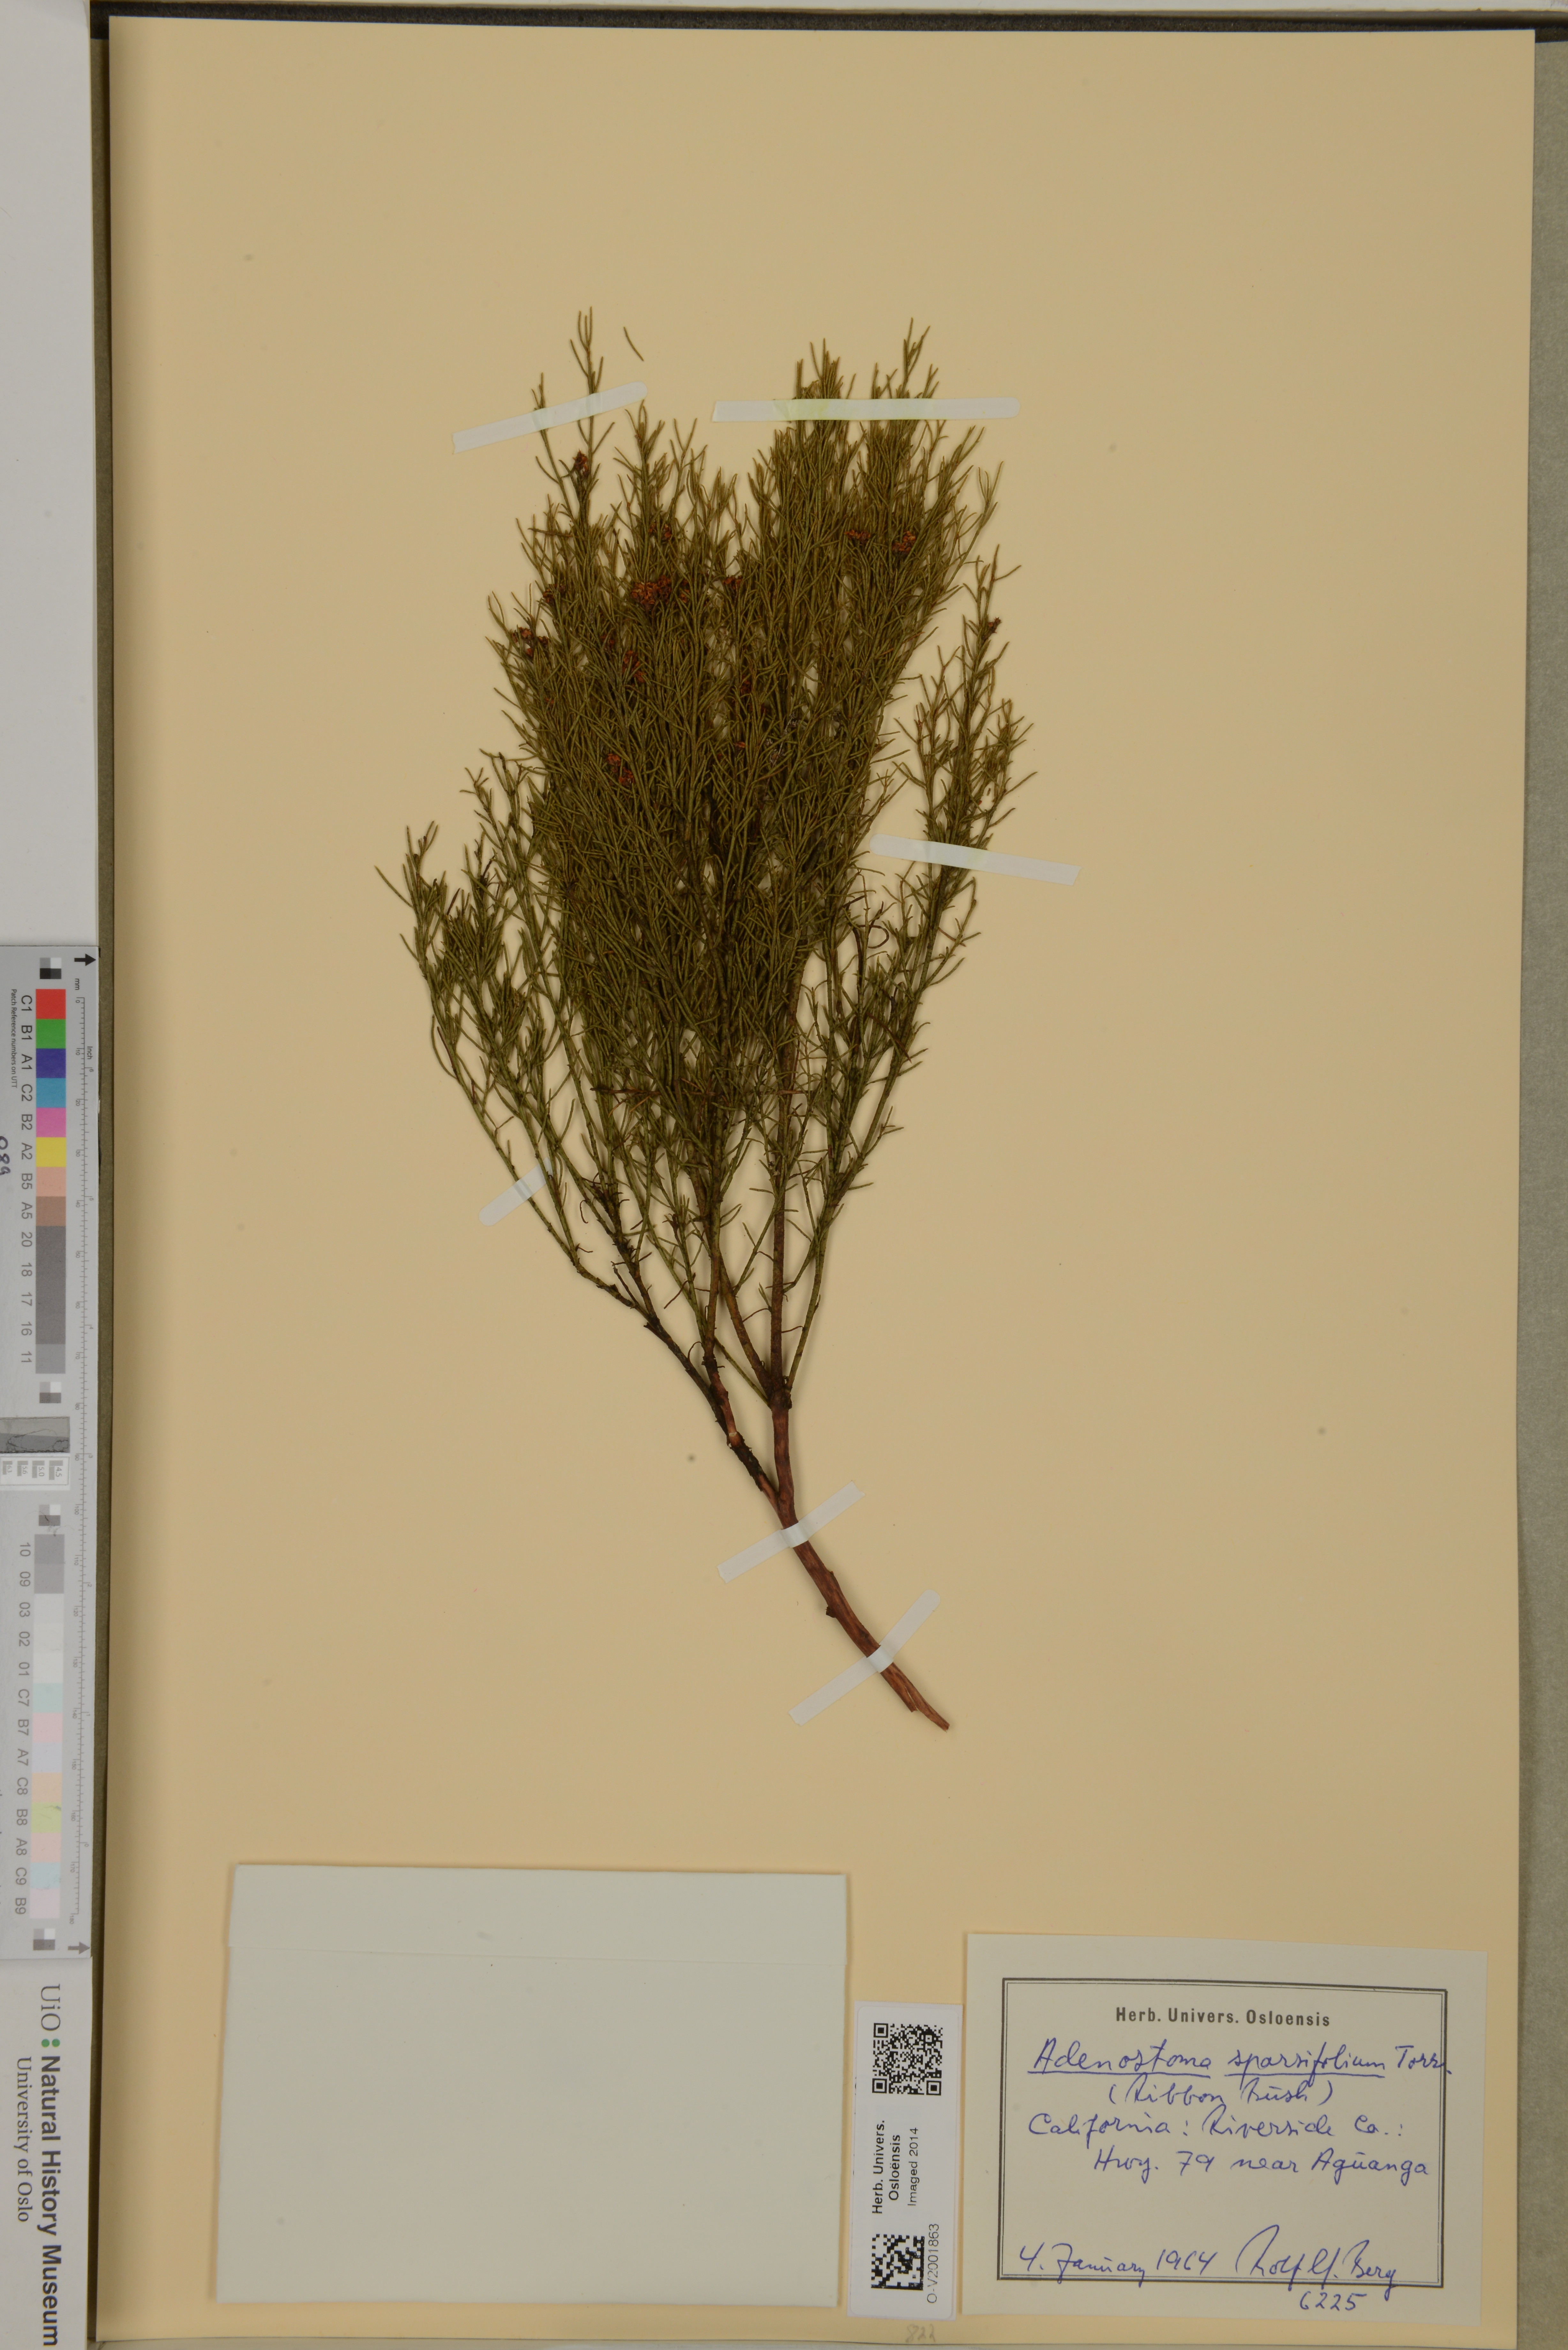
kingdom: Plantae
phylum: Tracheophyta
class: Magnoliopsida
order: Rosales
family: Rosaceae
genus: Adenostoma
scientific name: Adenostoma sparsifolium
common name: Red shank
